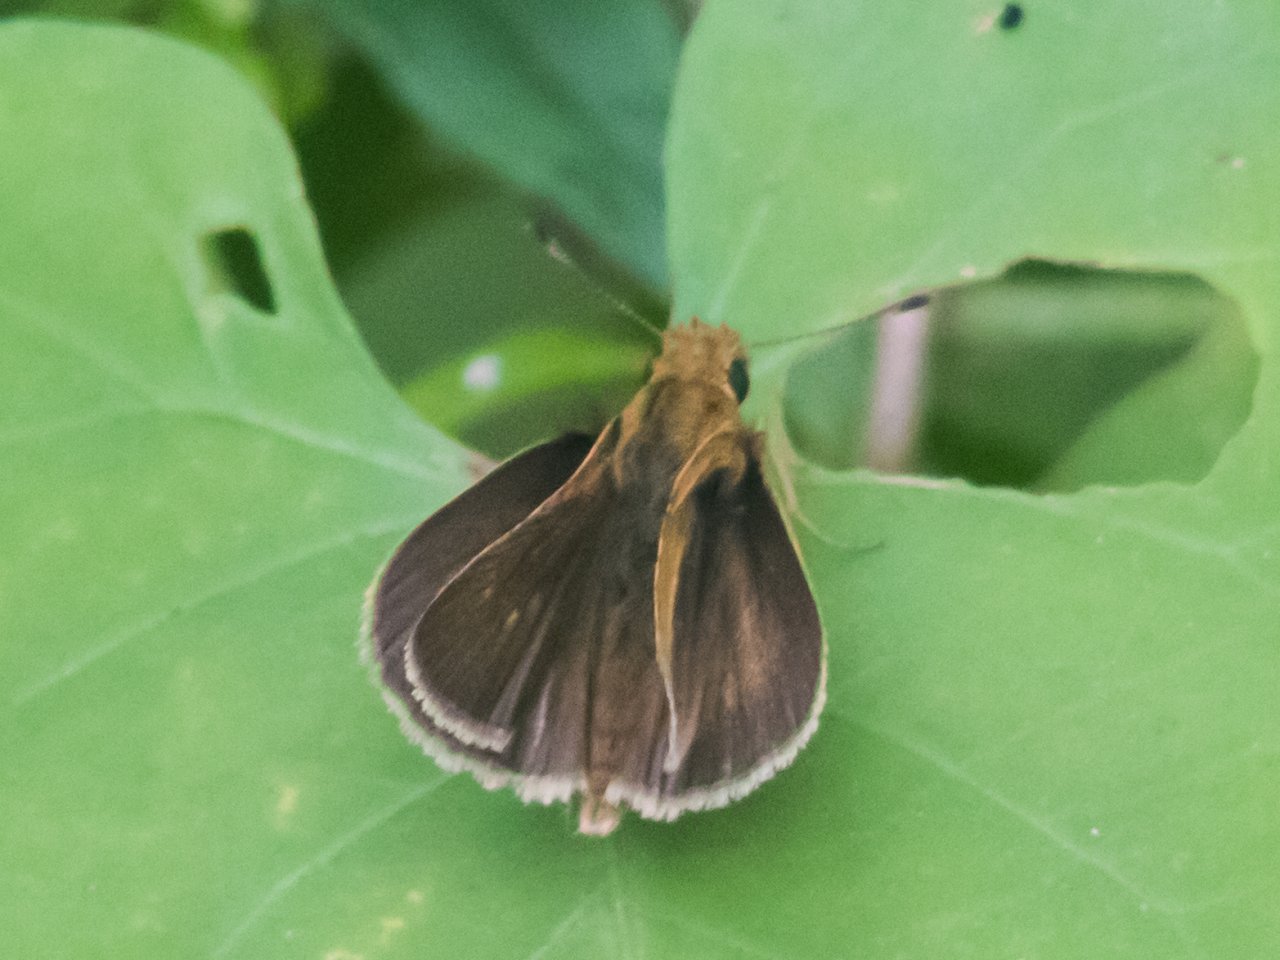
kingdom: Animalia
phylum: Arthropoda
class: Insecta
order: Lepidoptera
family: Hesperiidae
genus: Nastra
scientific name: Nastra julia
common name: Julia's Skipper
